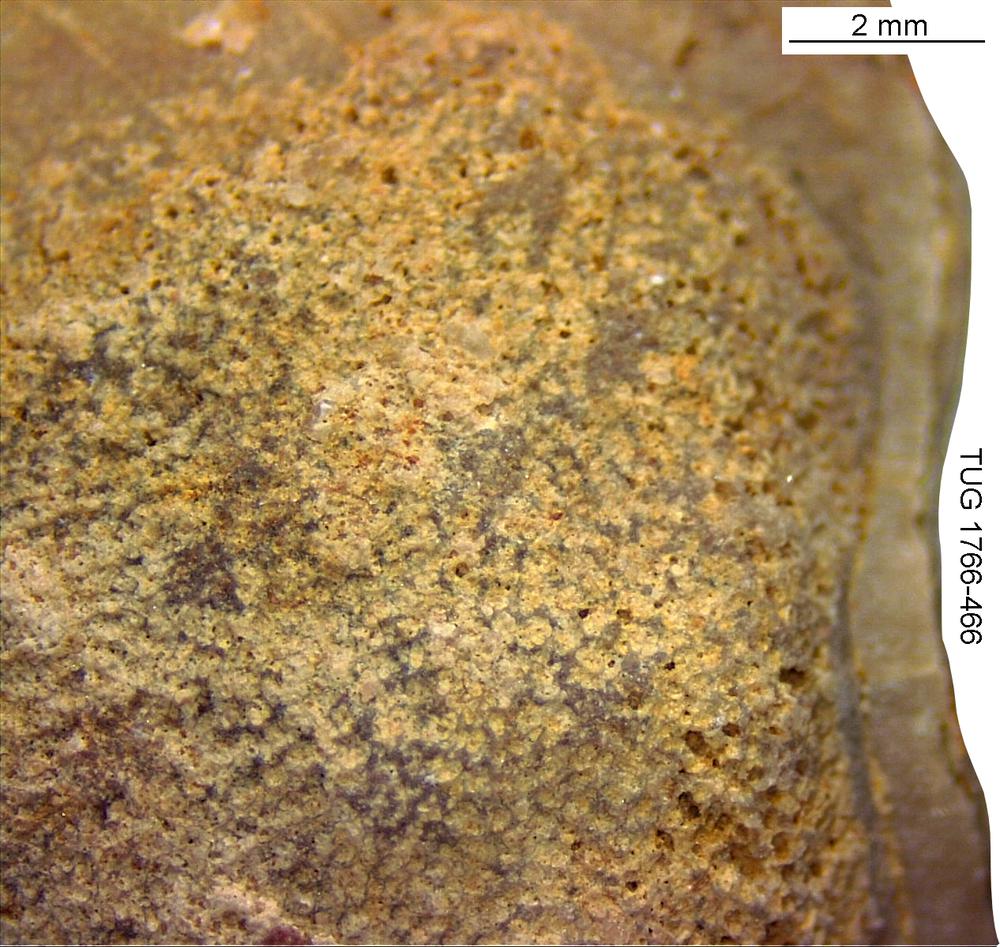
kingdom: Animalia
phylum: Bryozoa
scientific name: Bryozoa
